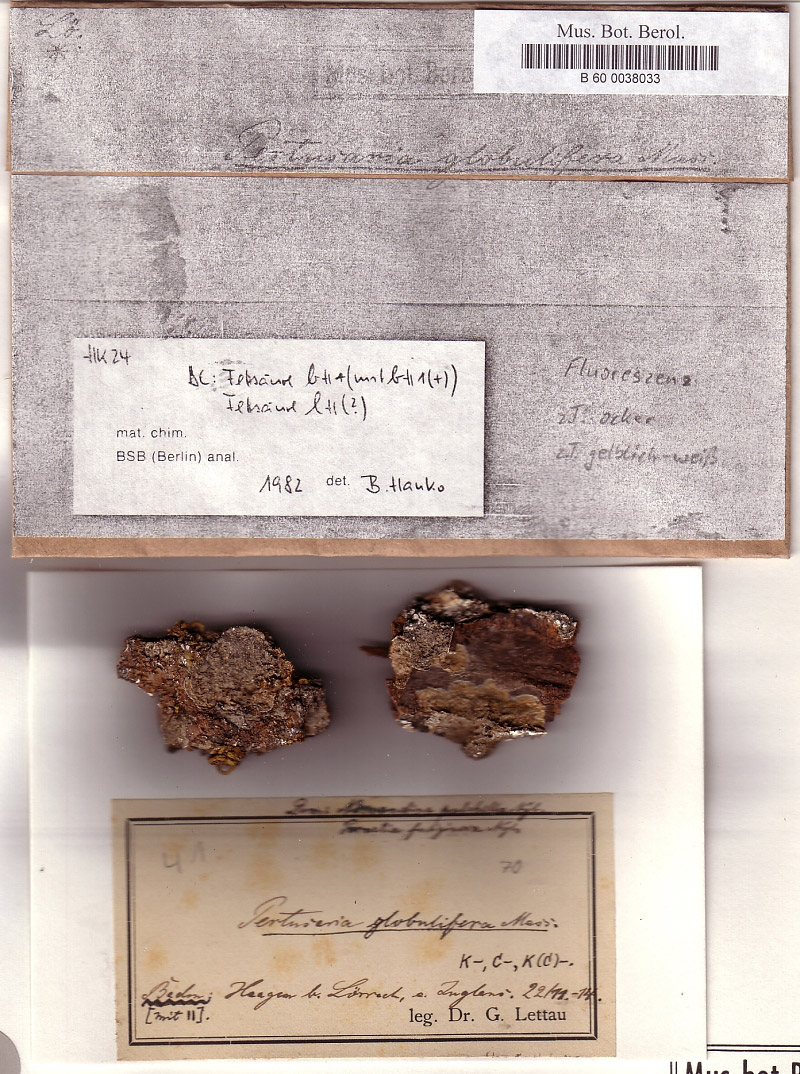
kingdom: Fungi
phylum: Ascomycota
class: Lecanoromycetes
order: Lecanorales
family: Parmeliaceae
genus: Melanelixia
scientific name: Melanelixia fuliginosa
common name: Shiny camouflage lichen
